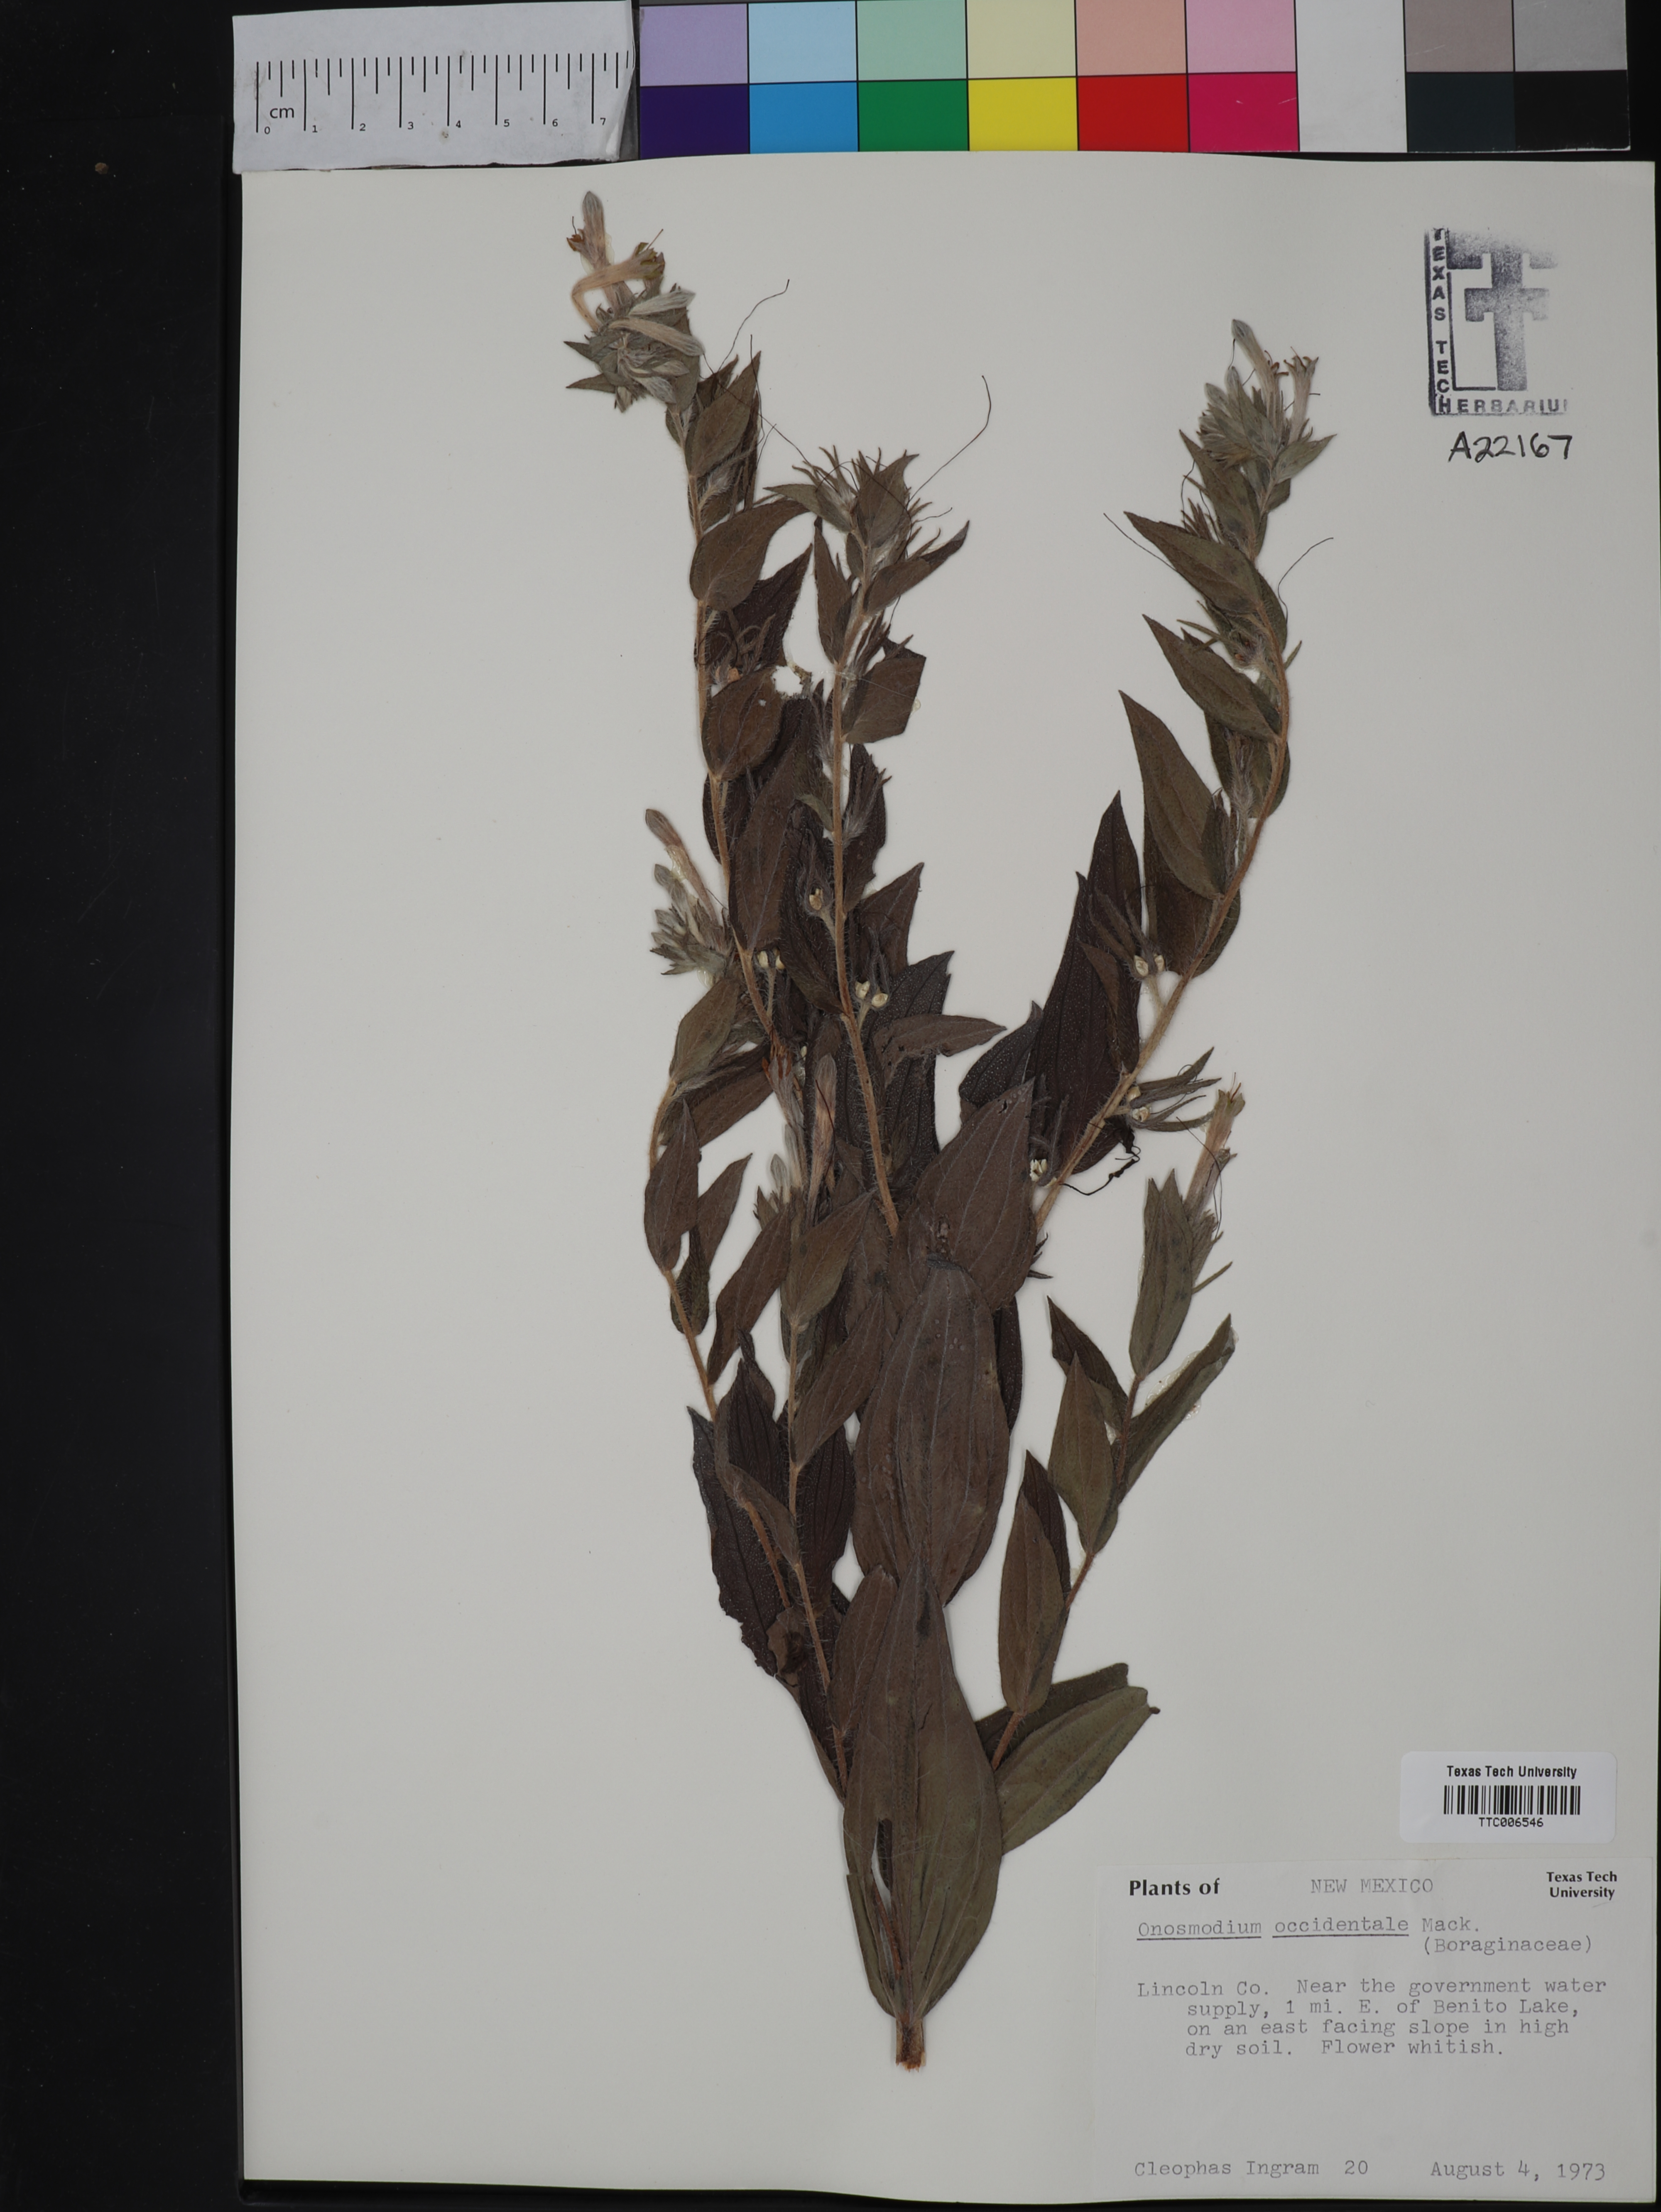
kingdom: Plantae
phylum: Tracheophyta
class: Magnoliopsida
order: Boraginales
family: Boraginaceae
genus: Lithospermum
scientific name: Lithospermum occidentale
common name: Western false gromwell
